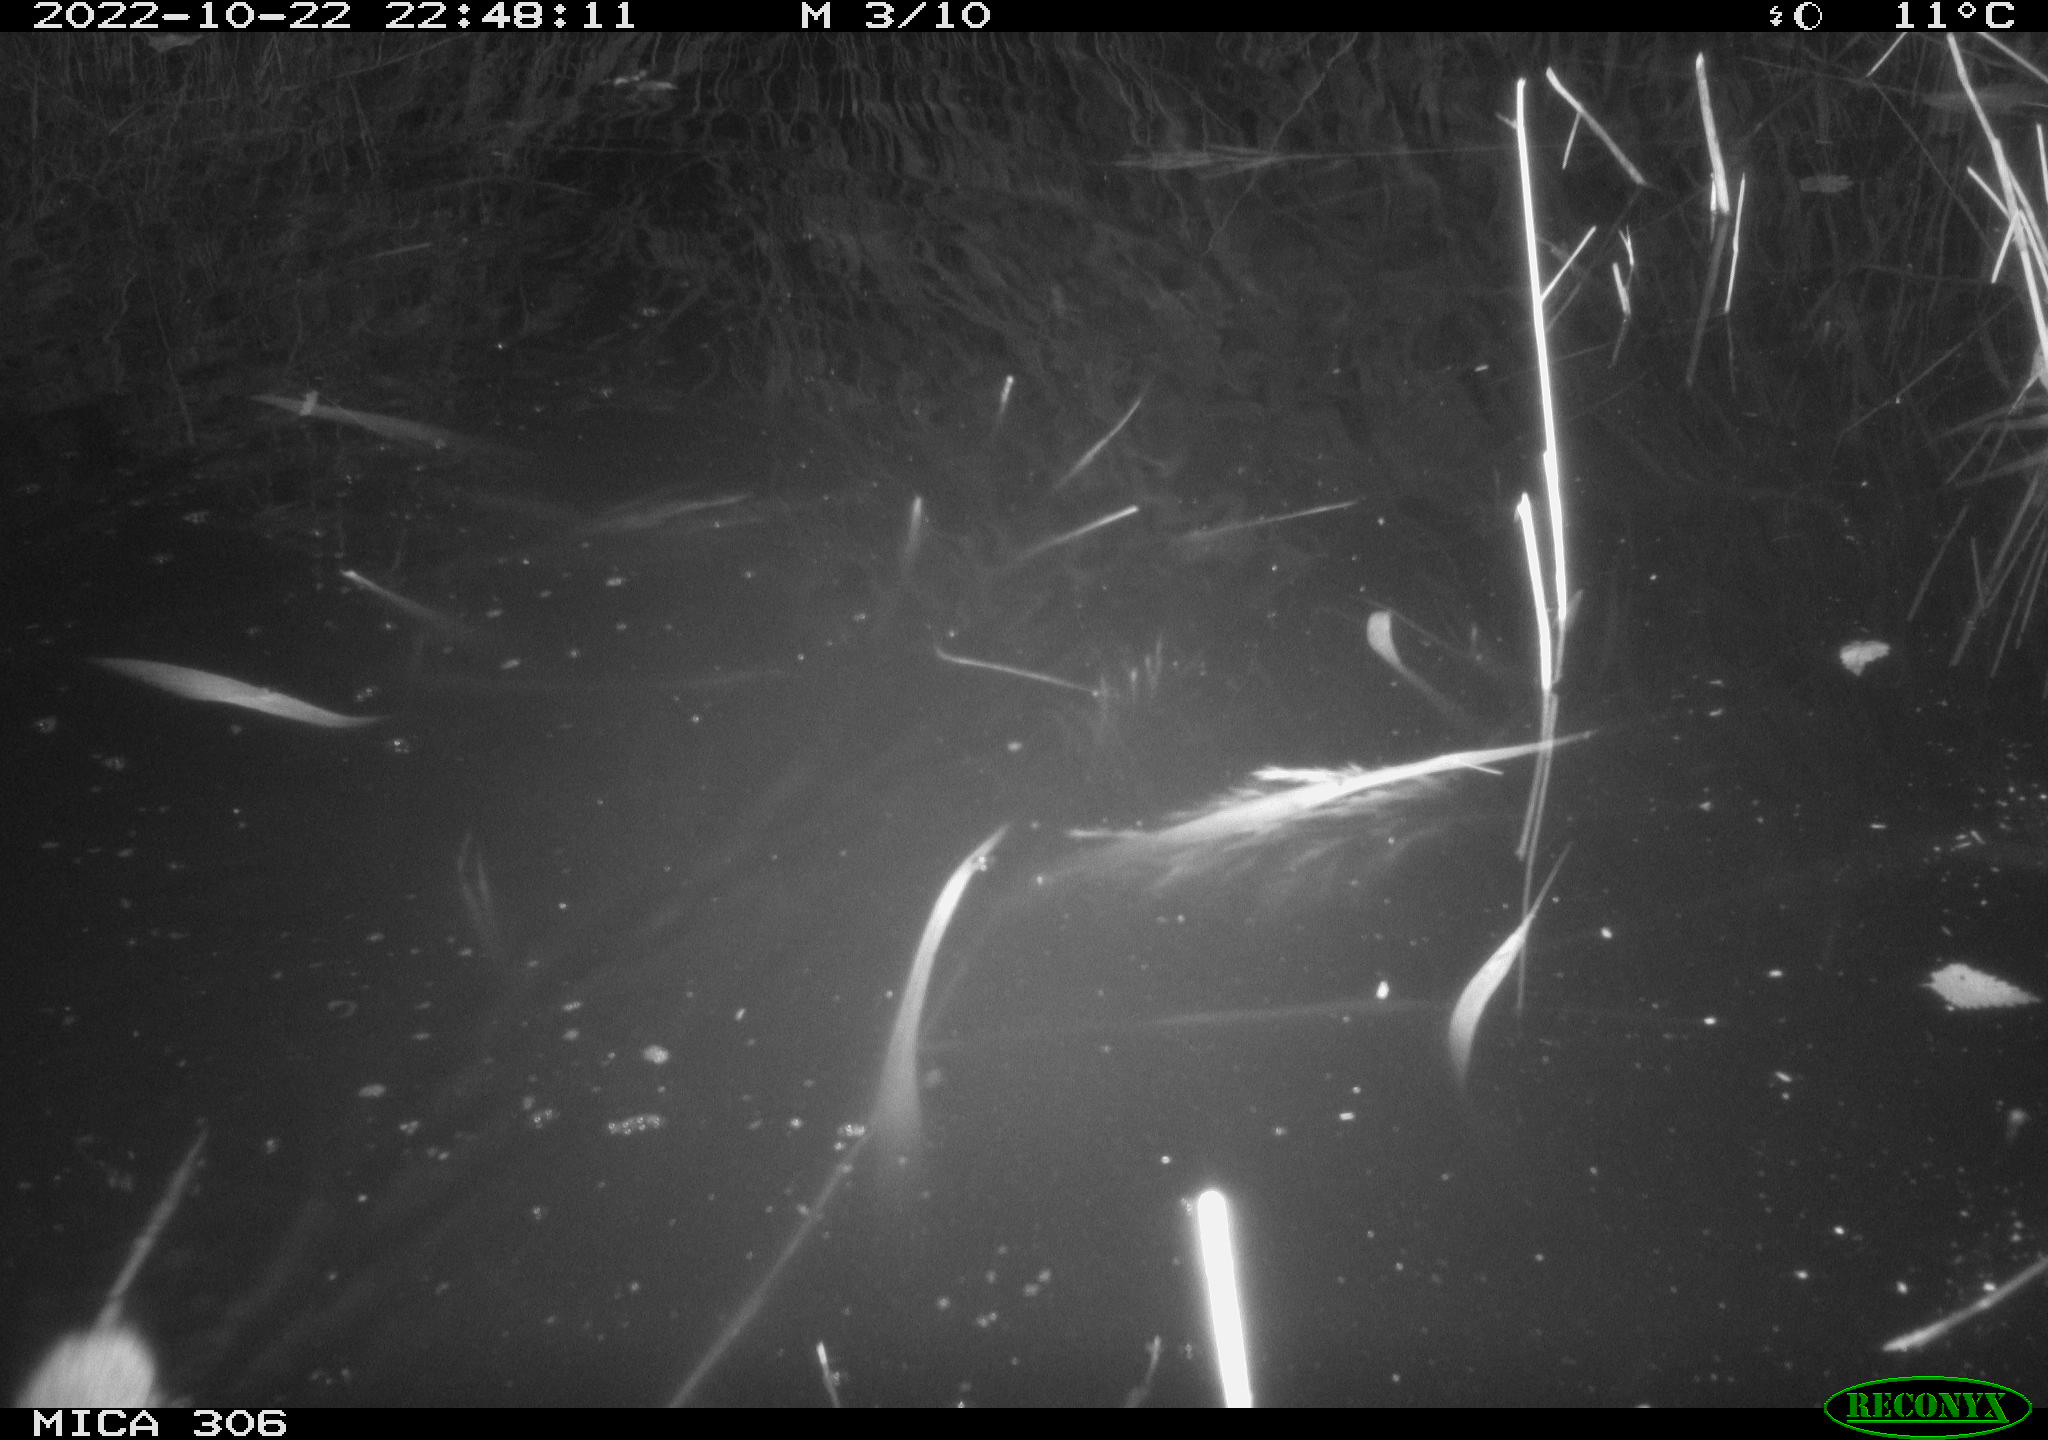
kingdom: Animalia
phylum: Chordata
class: Mammalia
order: Rodentia
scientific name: Rodentia
